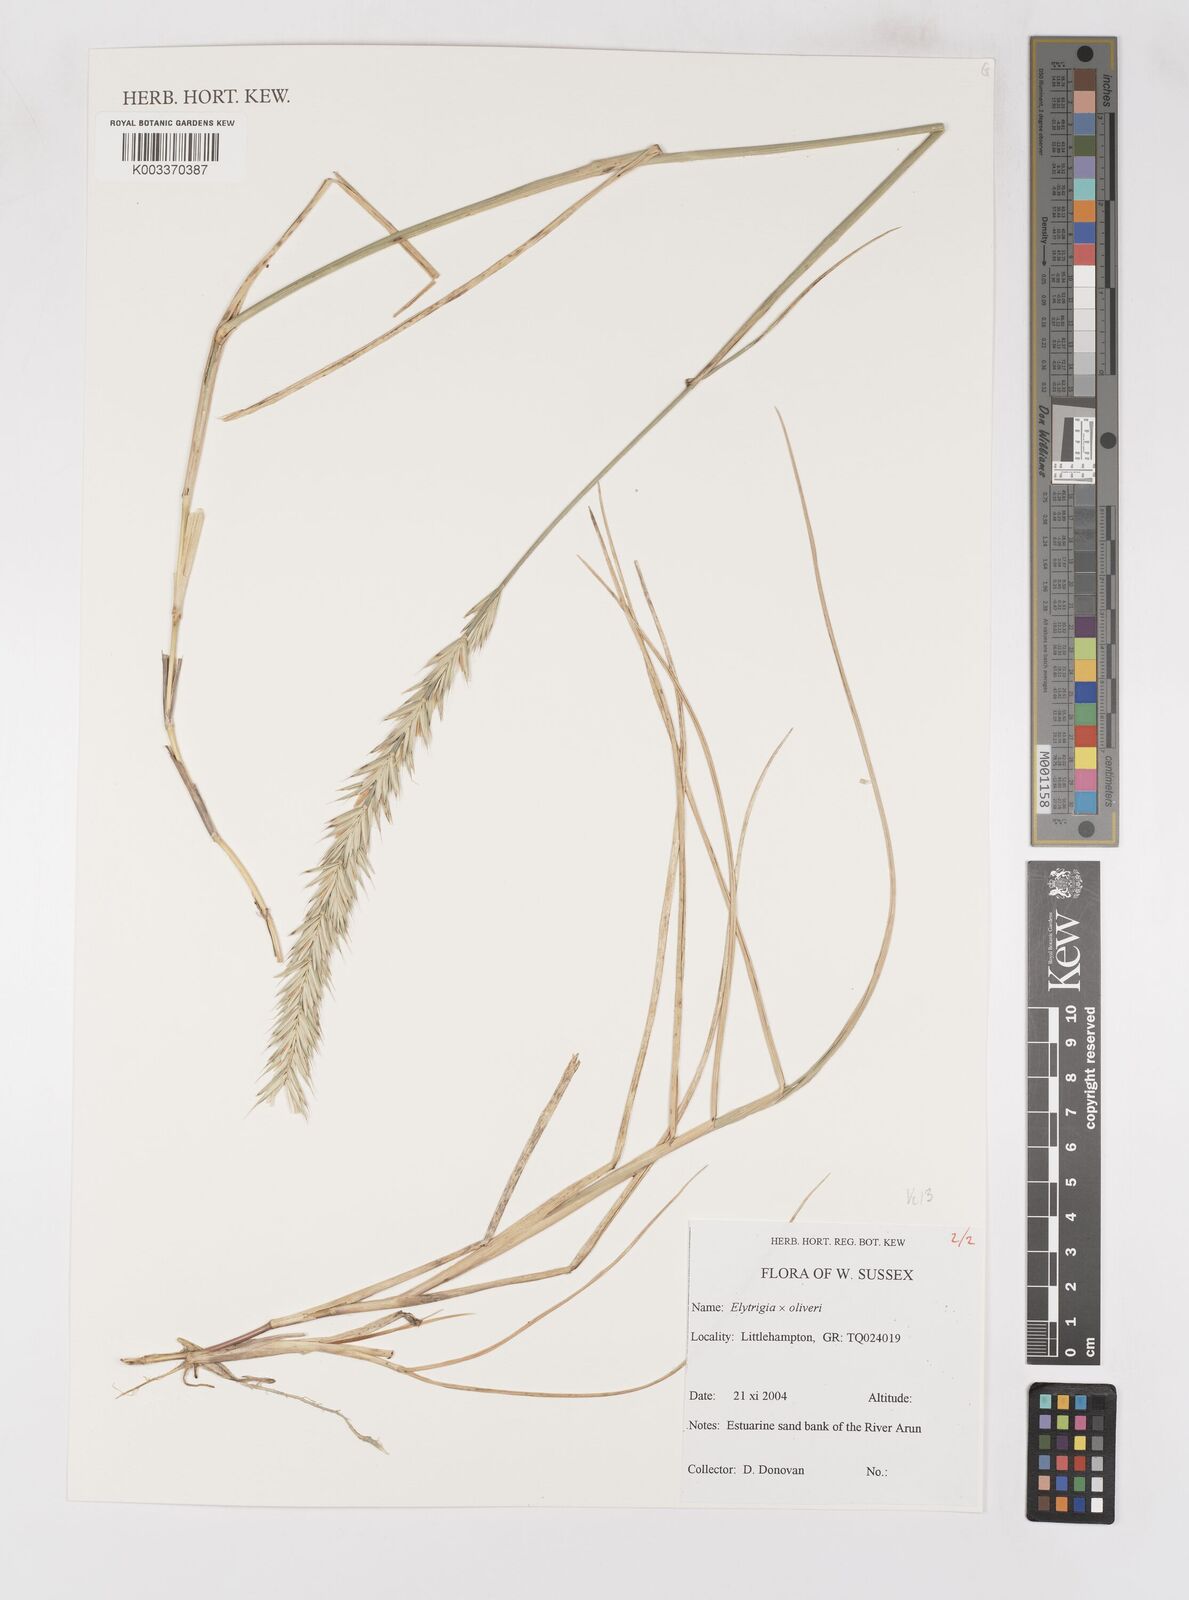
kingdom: Plantae
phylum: Tracheophyta
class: Liliopsida
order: Poales
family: Poaceae
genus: Elymus
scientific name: Elymus oliveri
